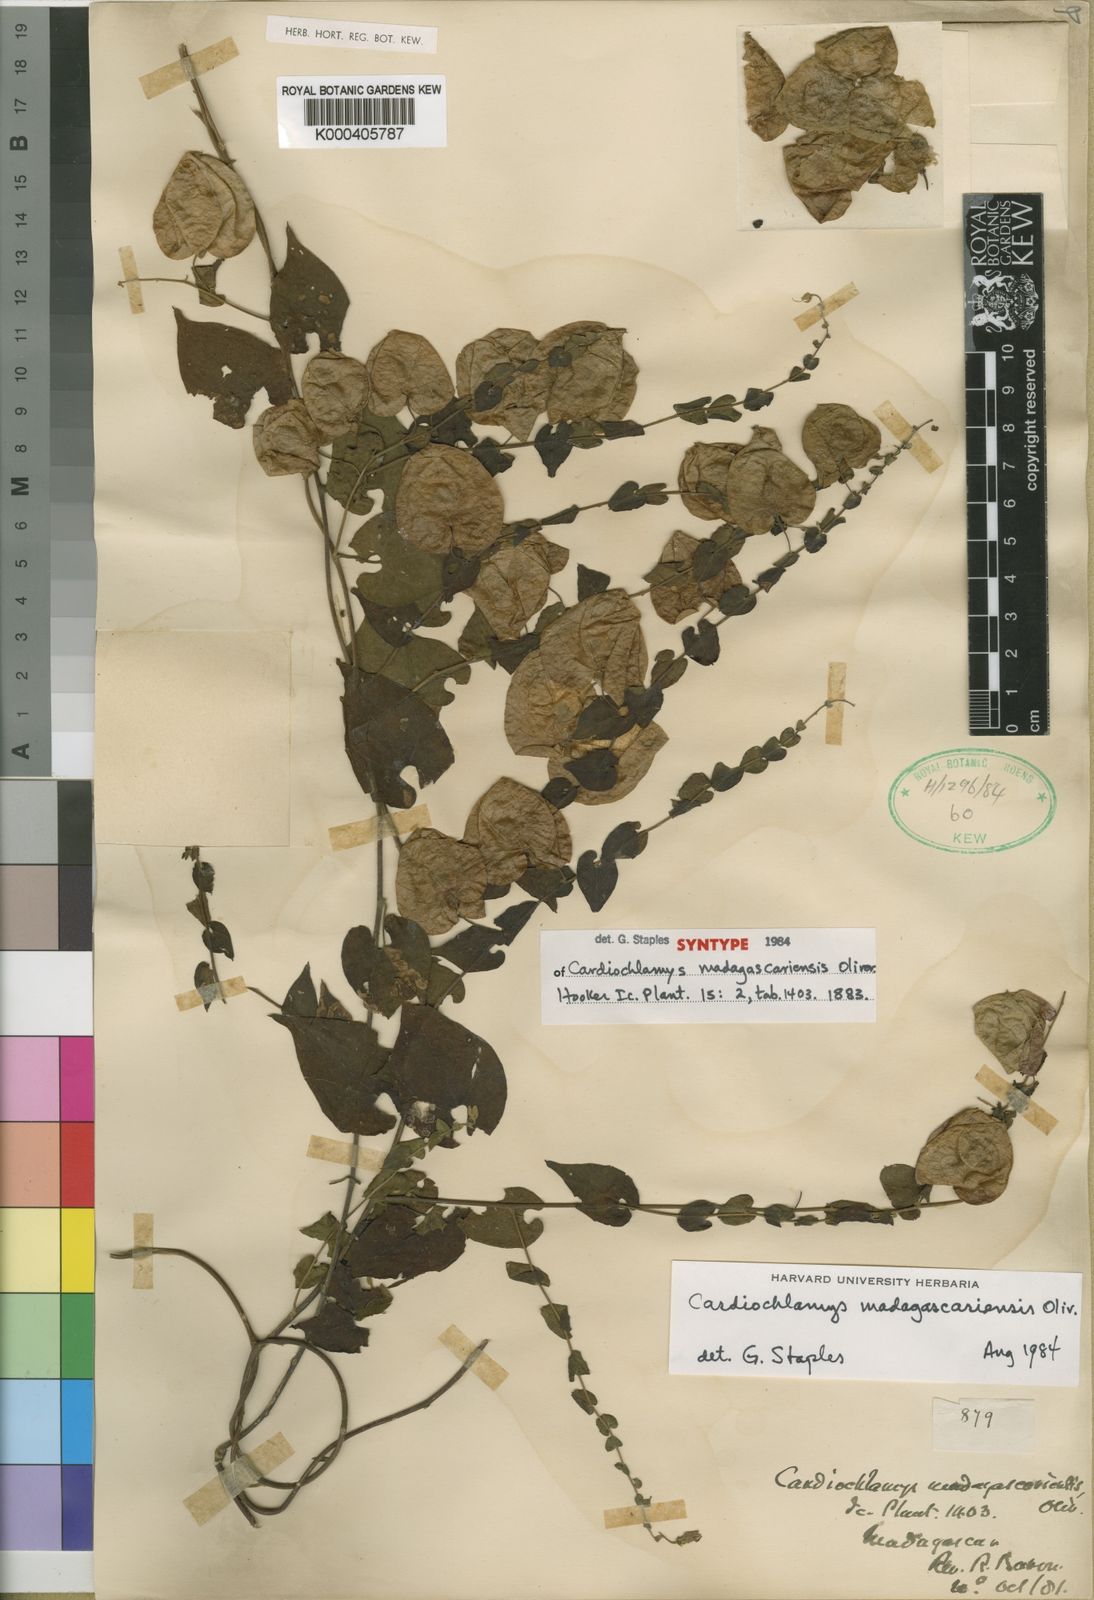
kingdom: Plantae
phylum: Tracheophyta
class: Magnoliopsida
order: Solanales
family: Convolvulaceae
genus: Cardiochlamys
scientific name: Cardiochlamys madagascariensis
